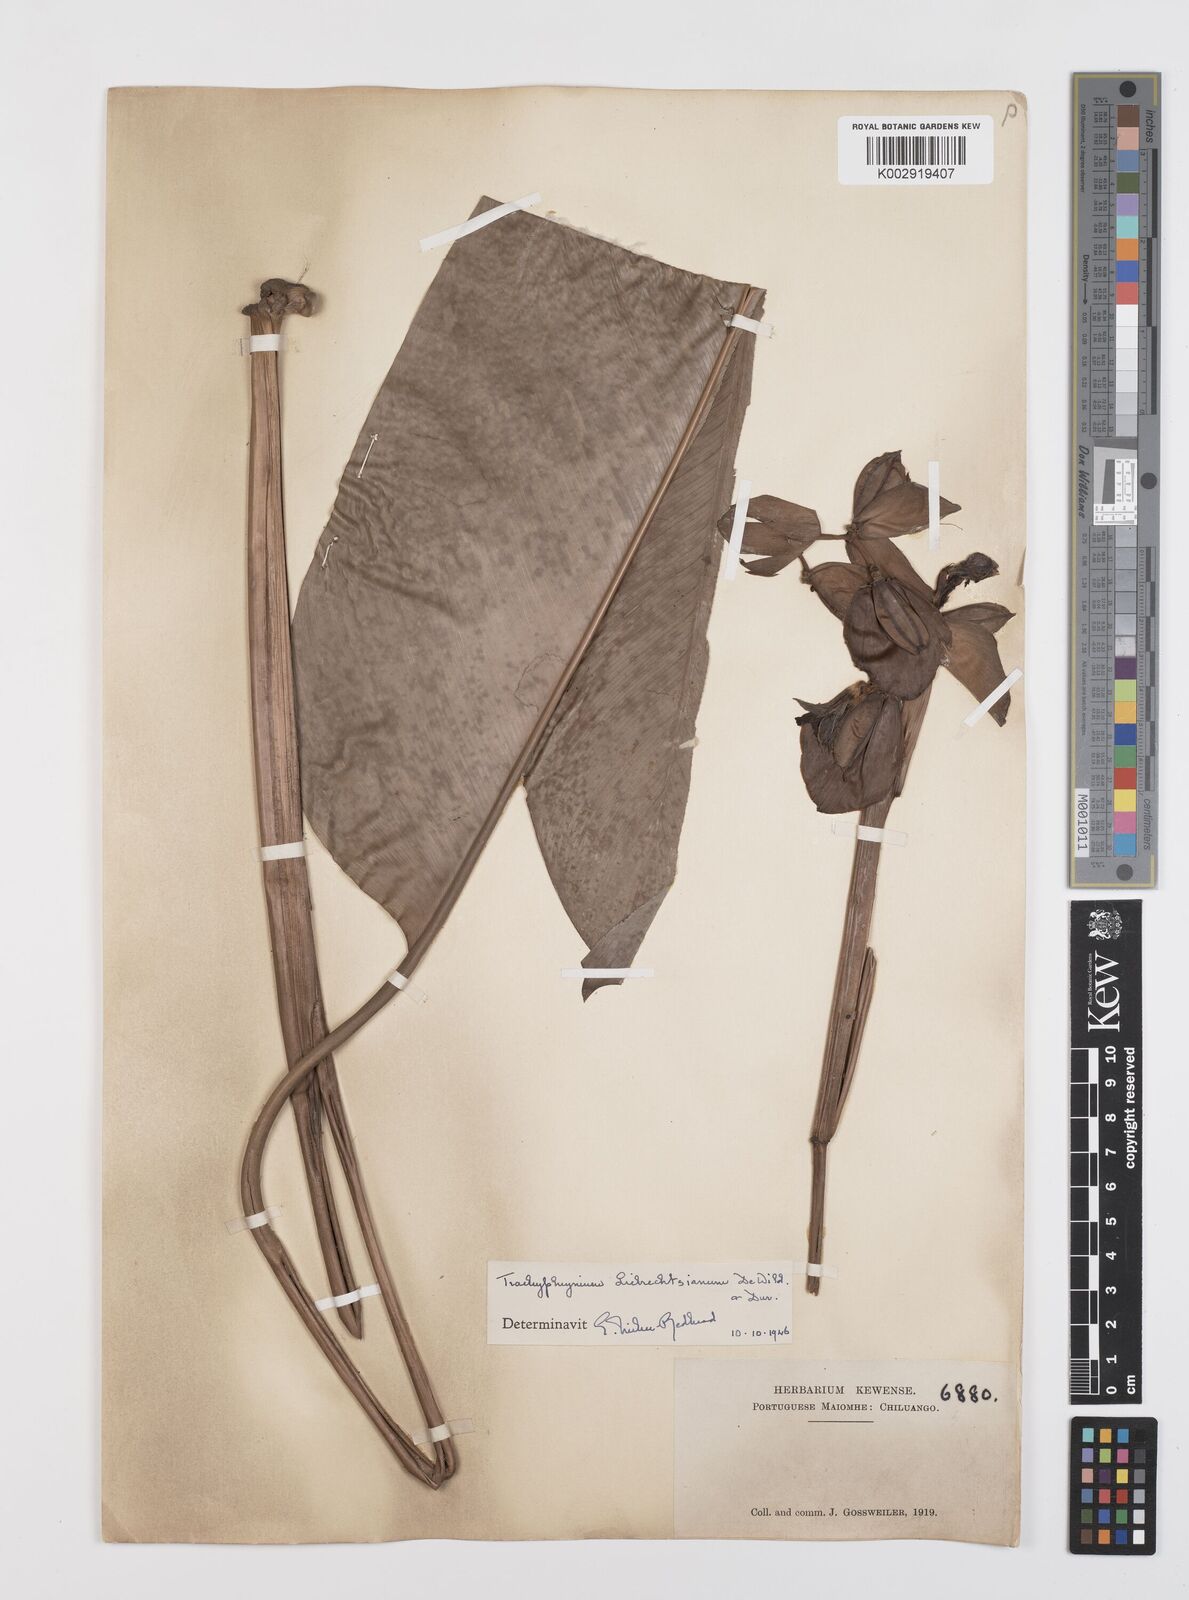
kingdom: Plantae
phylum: Tracheophyta
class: Liliopsida
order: Zingiberales
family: Marantaceae
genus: Haumania
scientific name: Haumania liebrechtsiana
